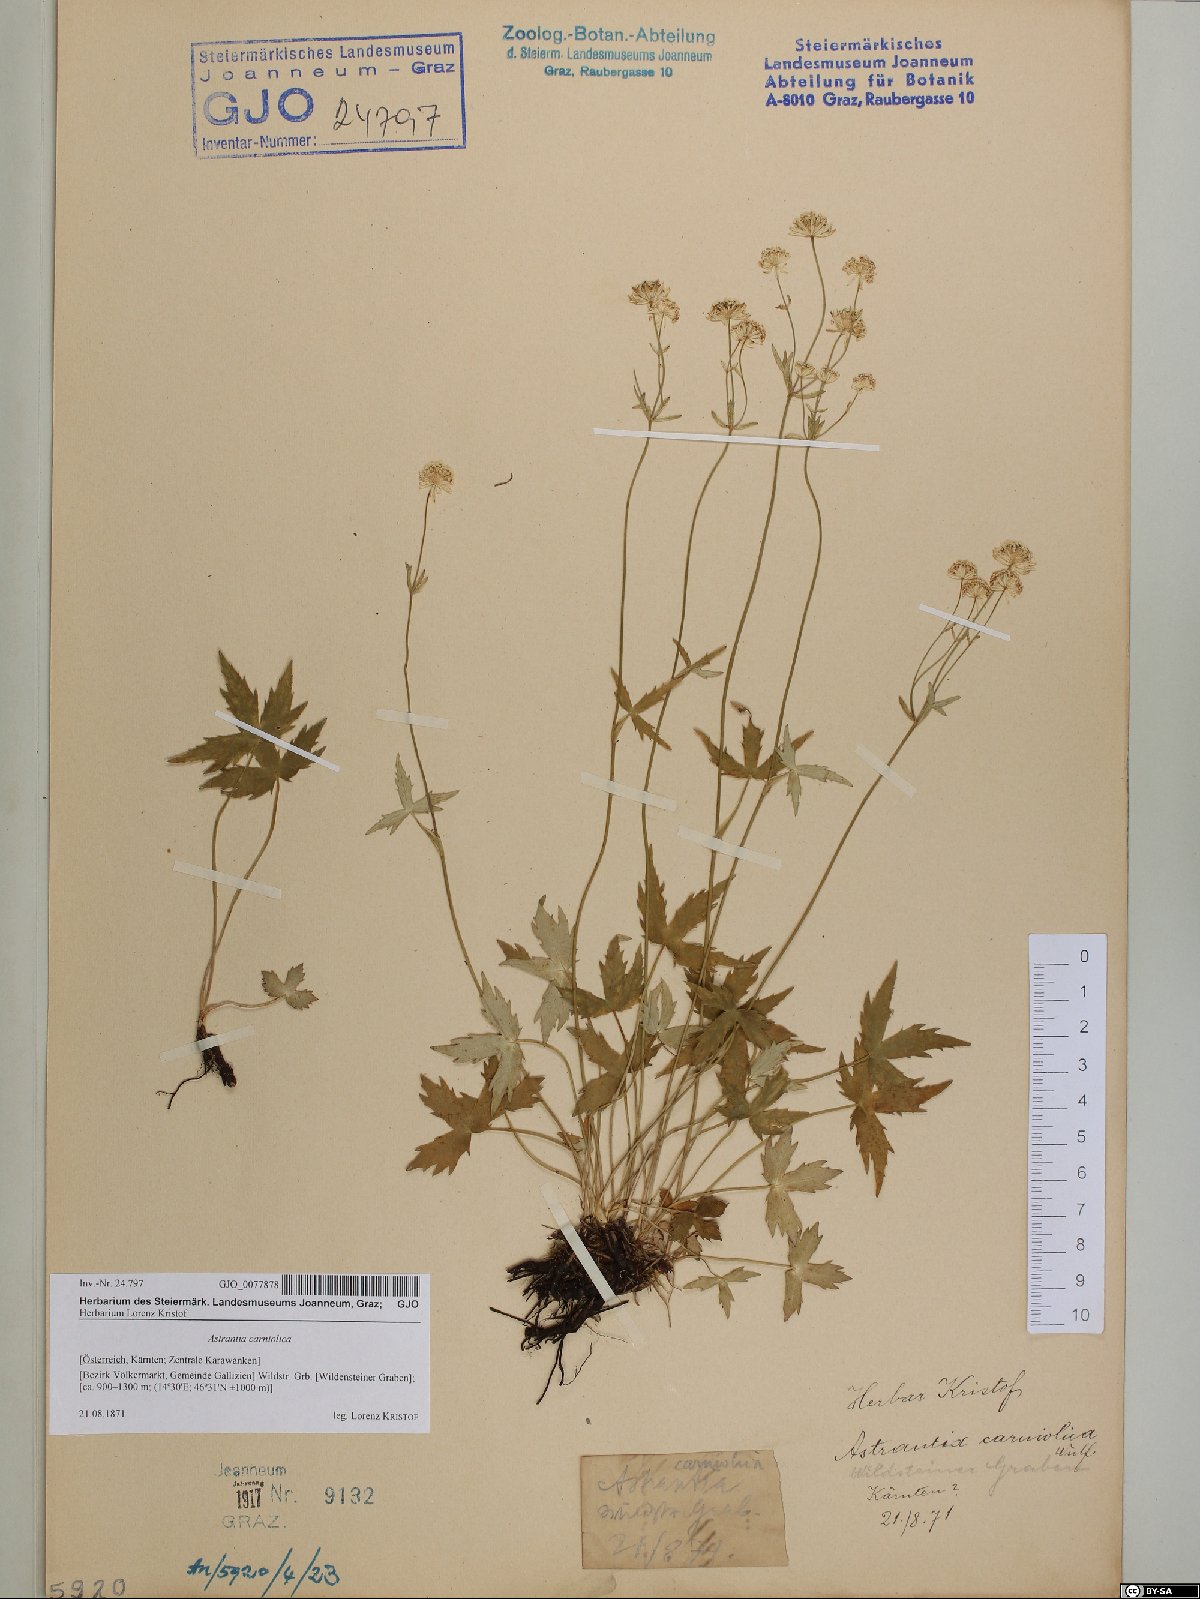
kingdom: Plantae
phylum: Tracheophyta
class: Magnoliopsida
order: Apiales
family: Apiaceae
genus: Astrantia
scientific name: Astrantia carniolica
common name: Carnic masterwort
